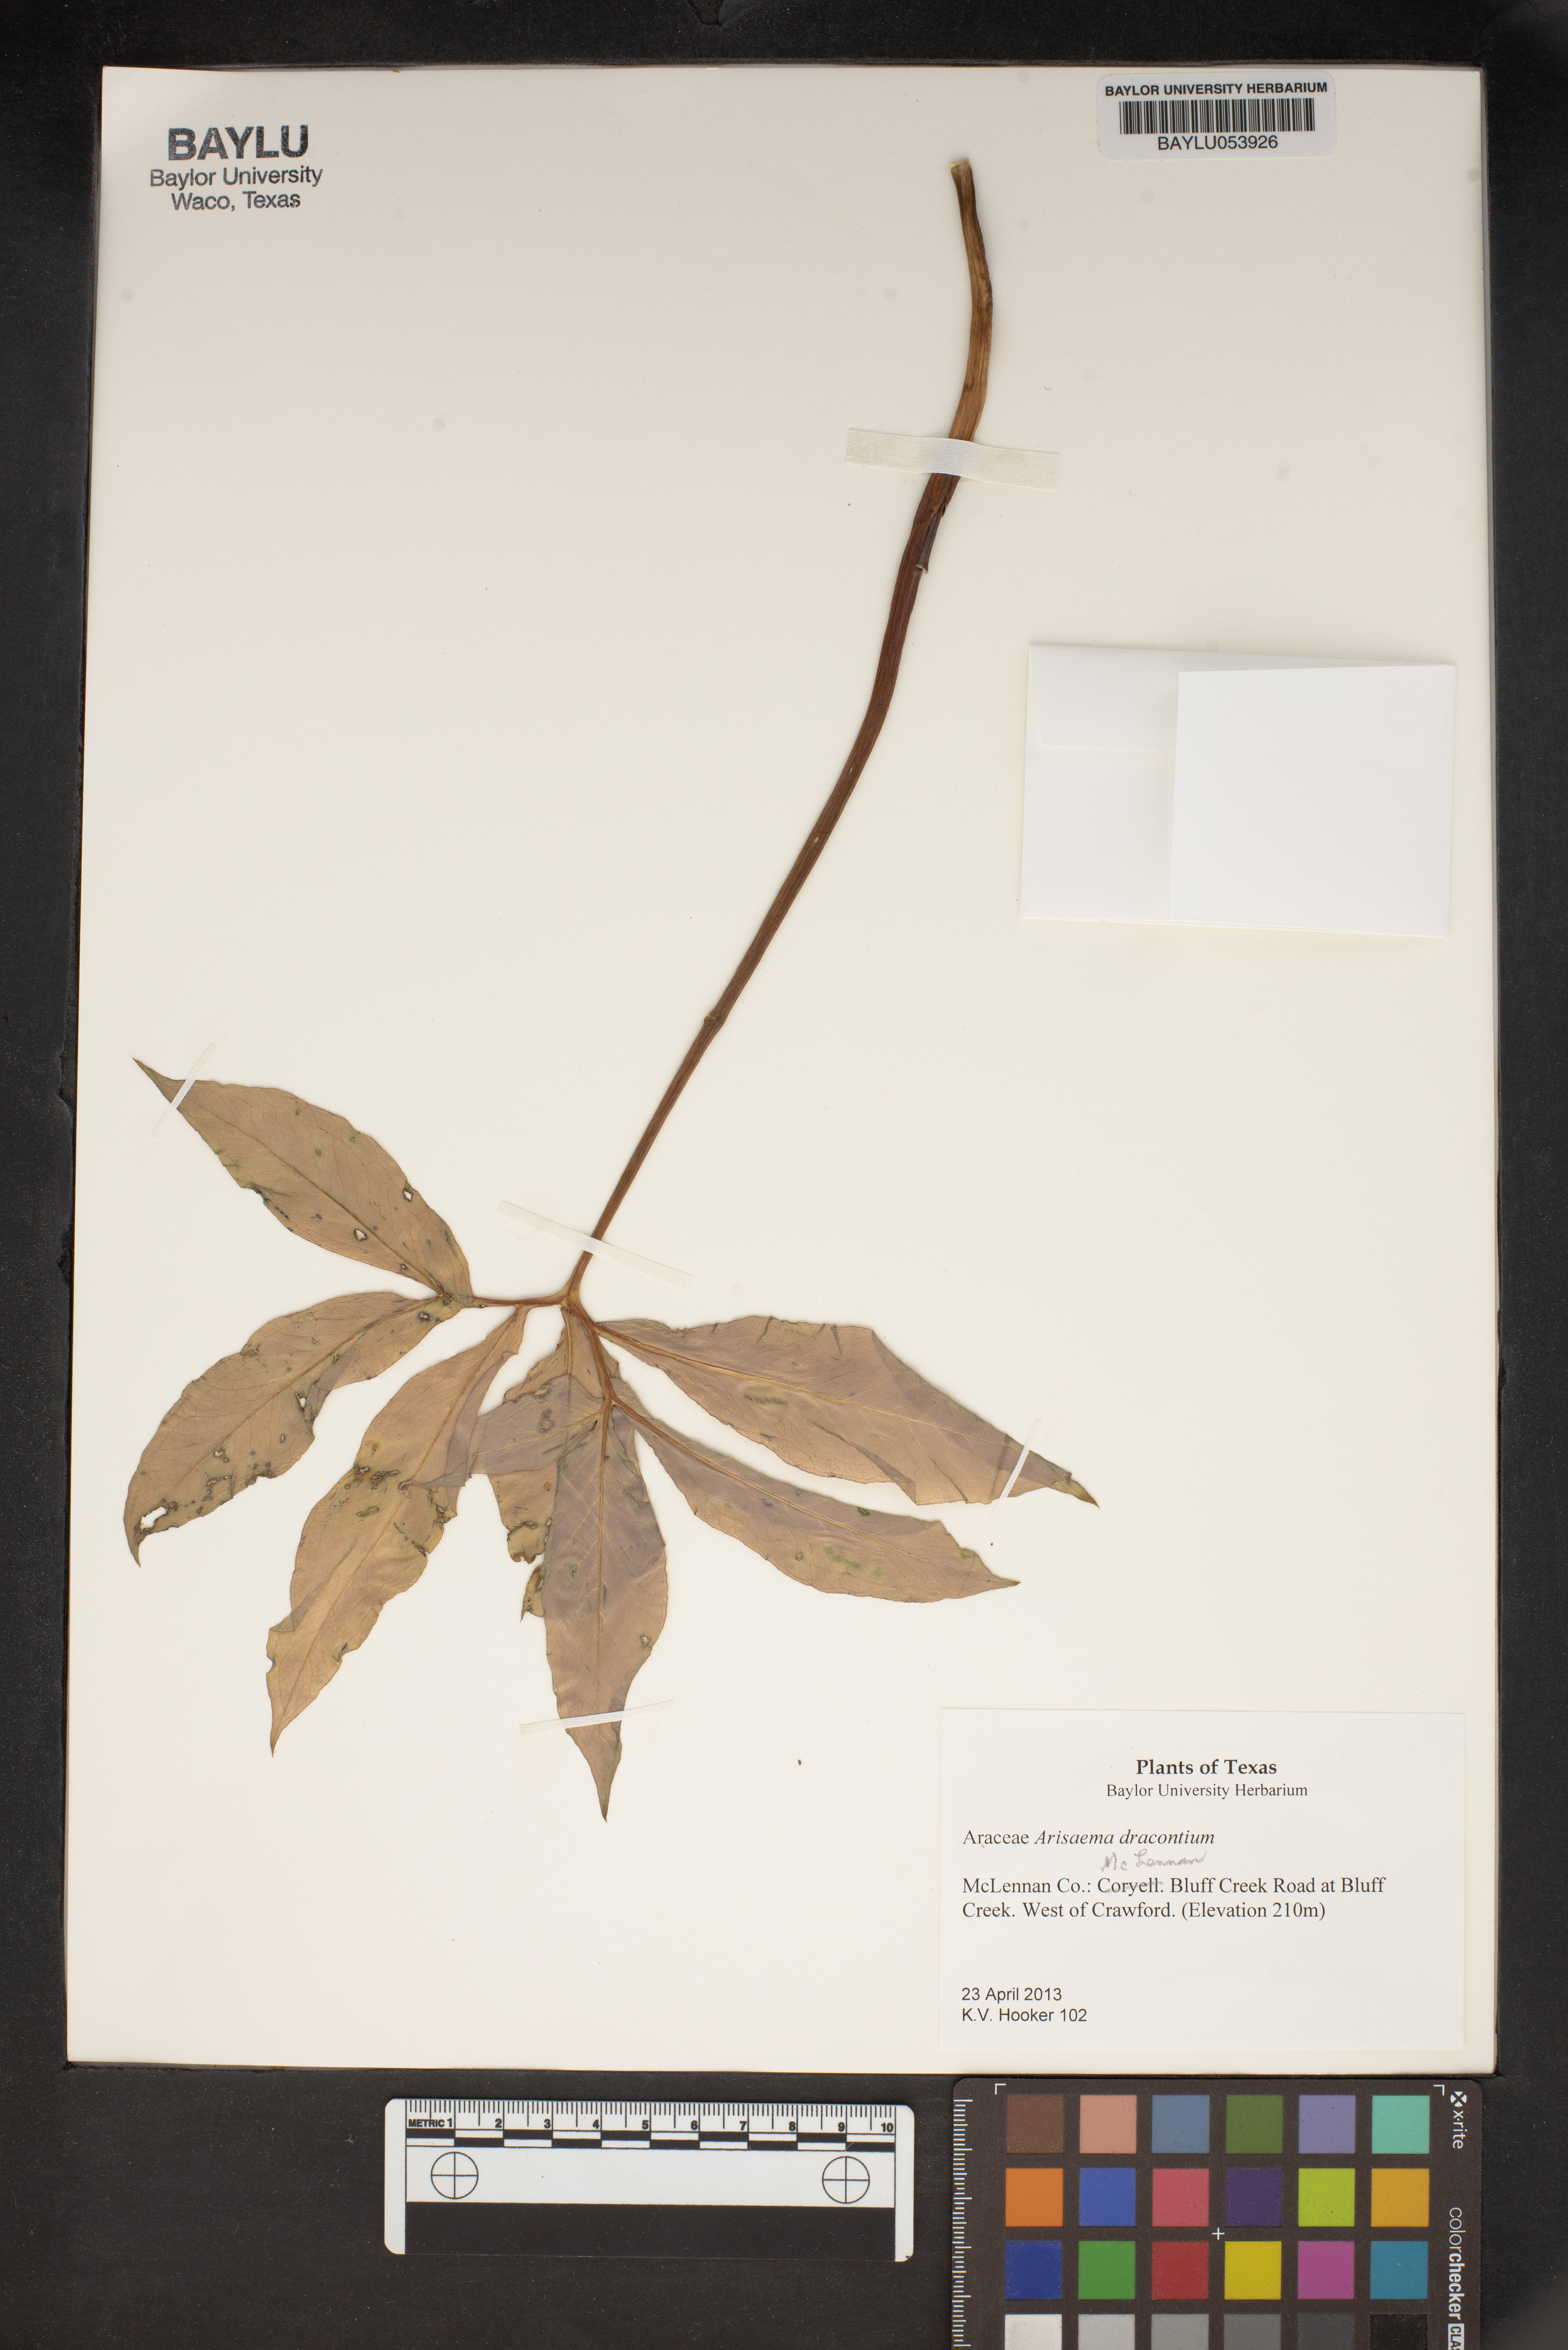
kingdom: Plantae
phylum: Tracheophyta
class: Liliopsida
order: Alismatales
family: Araceae
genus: Arisaema
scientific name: Arisaema dracontium
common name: Dragon-arum
